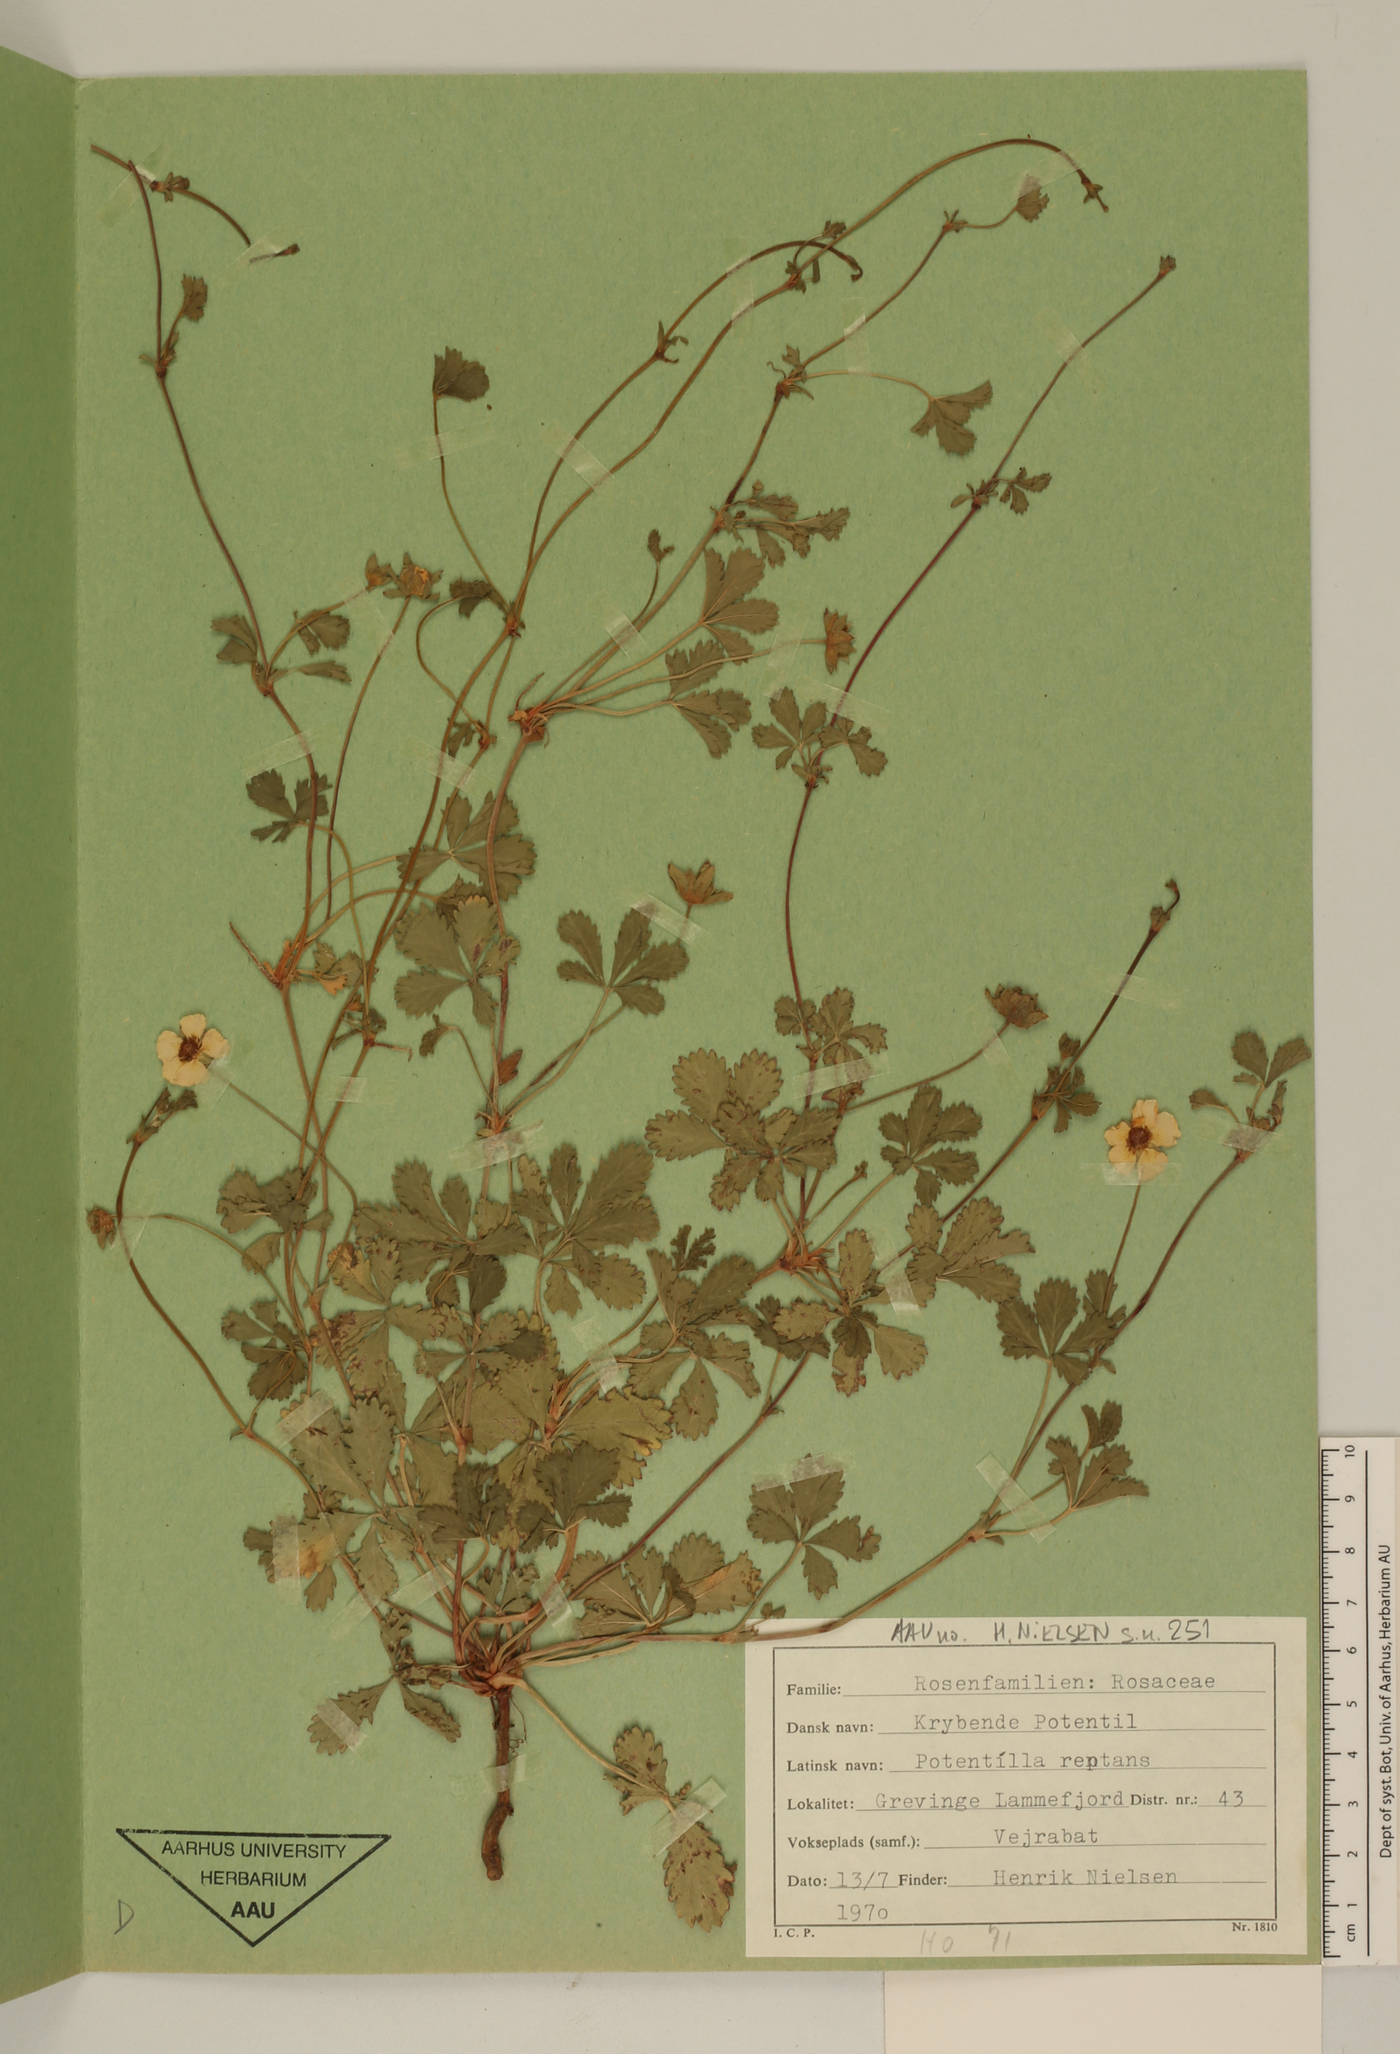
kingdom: Plantae
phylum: Tracheophyta
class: Magnoliopsida
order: Rosales
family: Rosaceae
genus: Potentilla
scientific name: Potentilla reptans
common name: Creeping cinquefoil
